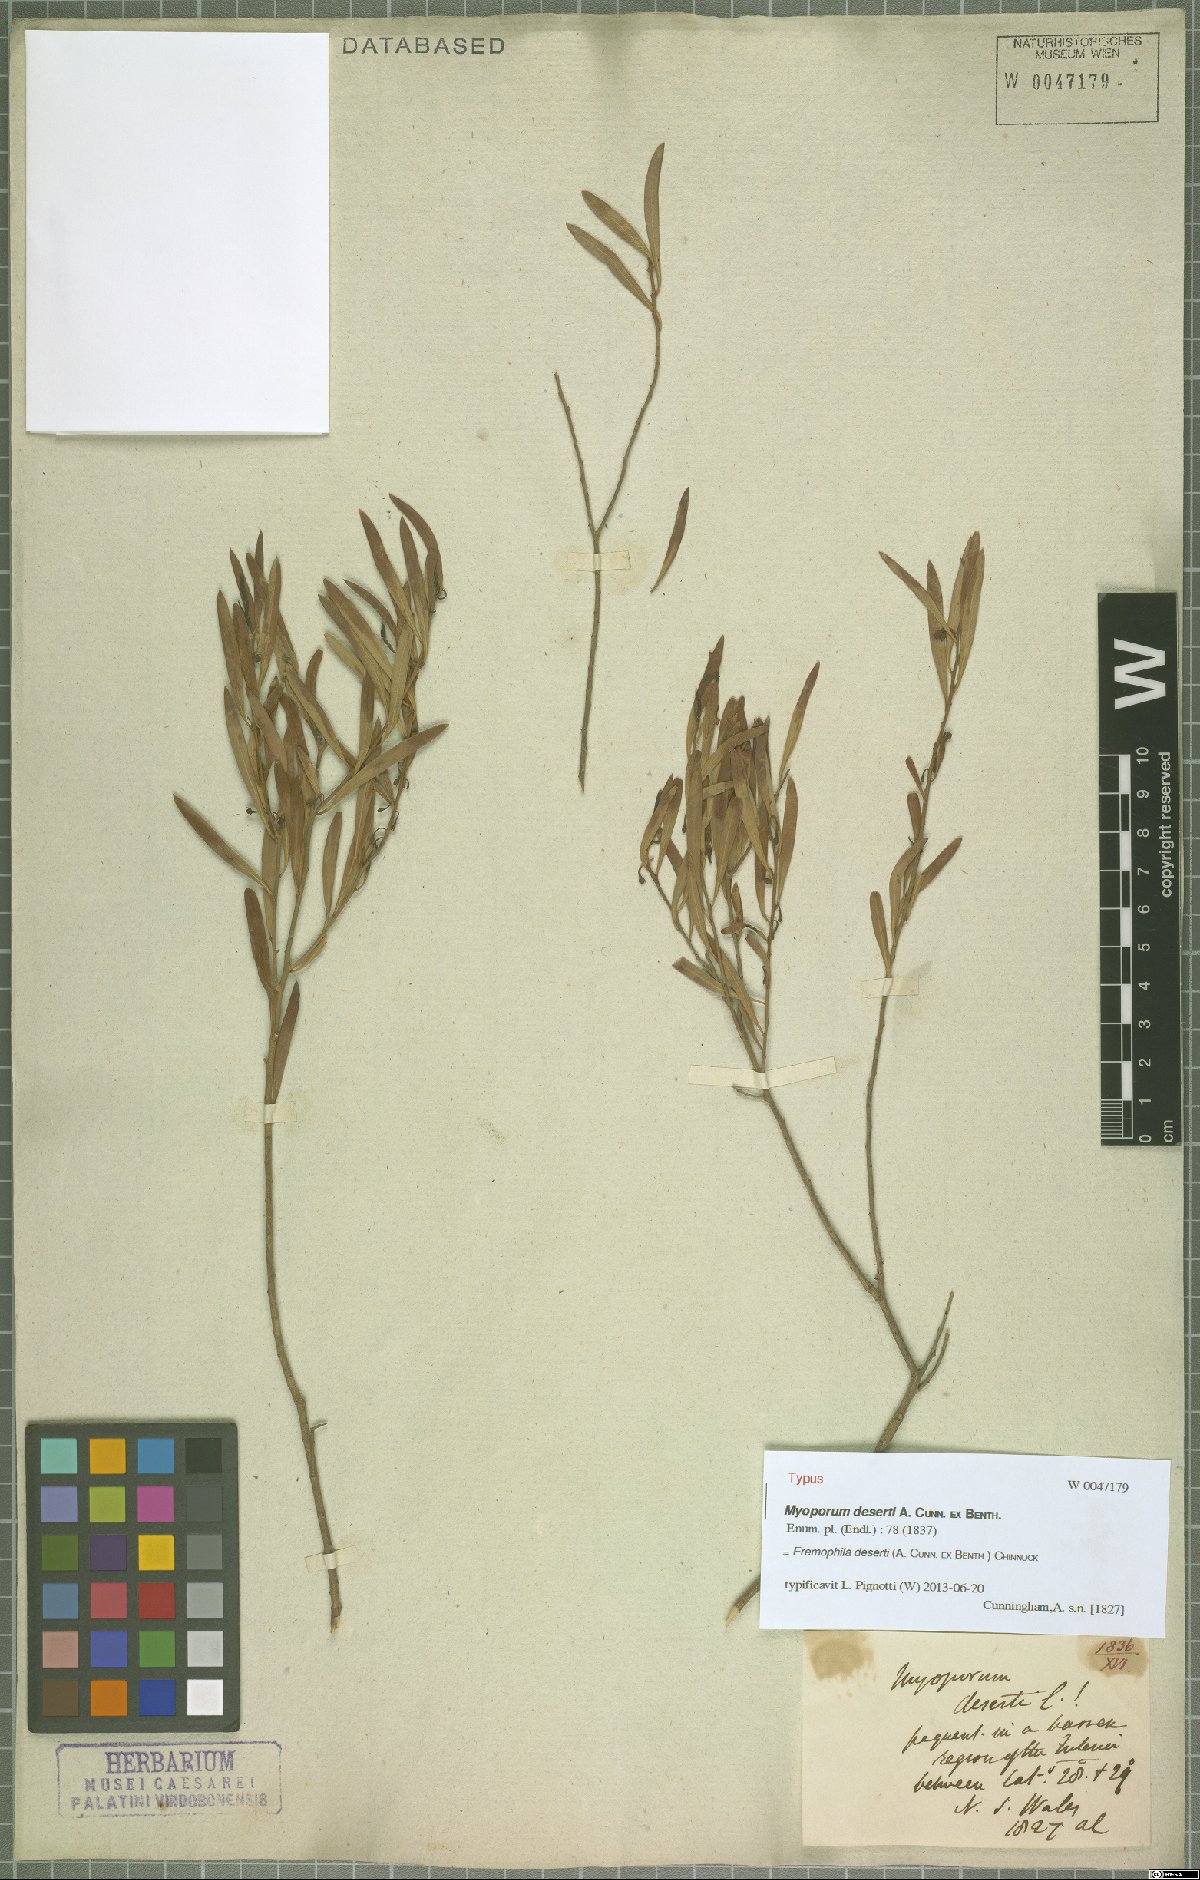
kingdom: Plantae
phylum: Tracheophyta
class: Magnoliopsida
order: Lamiales
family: Scrophulariaceae
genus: Eremophila
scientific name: Eremophila deserti
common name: Ellangowan-poisonbush
